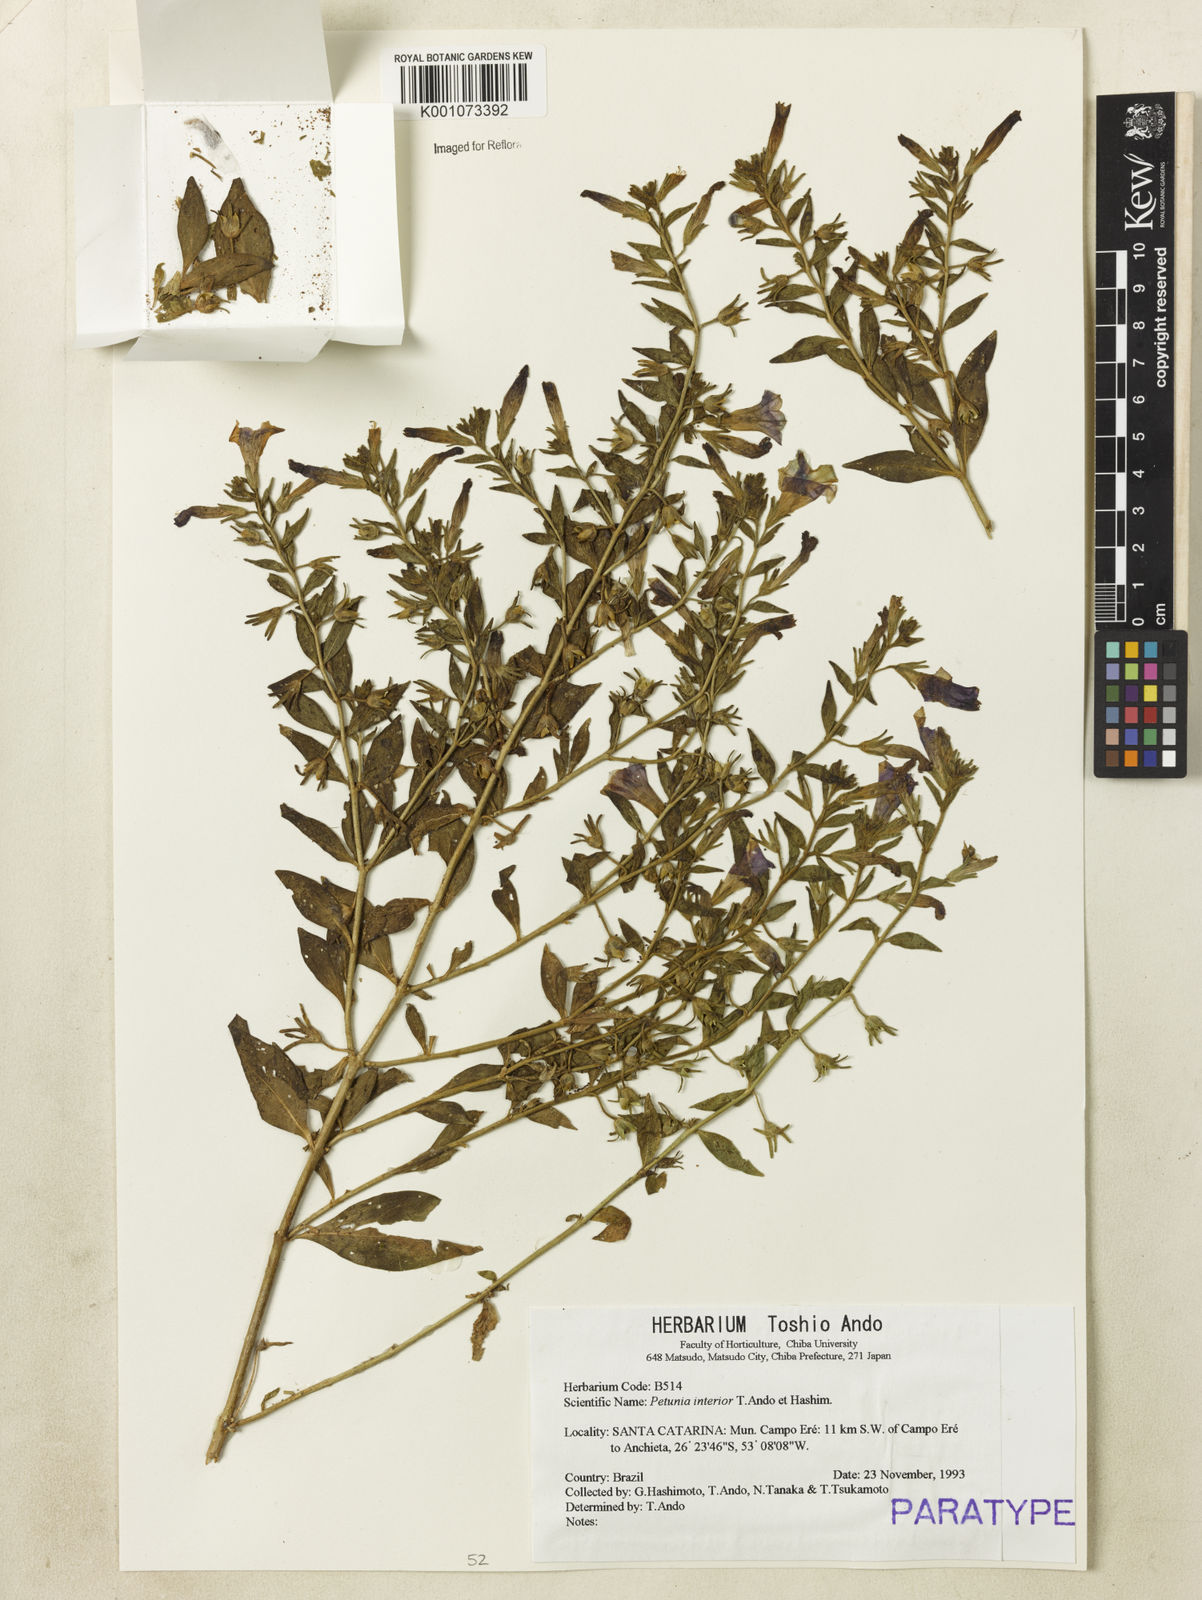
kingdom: Plantae
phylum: Tracheophyta
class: Magnoliopsida
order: Solanales
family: Solanaceae
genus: Petunia
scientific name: Petunia interior
